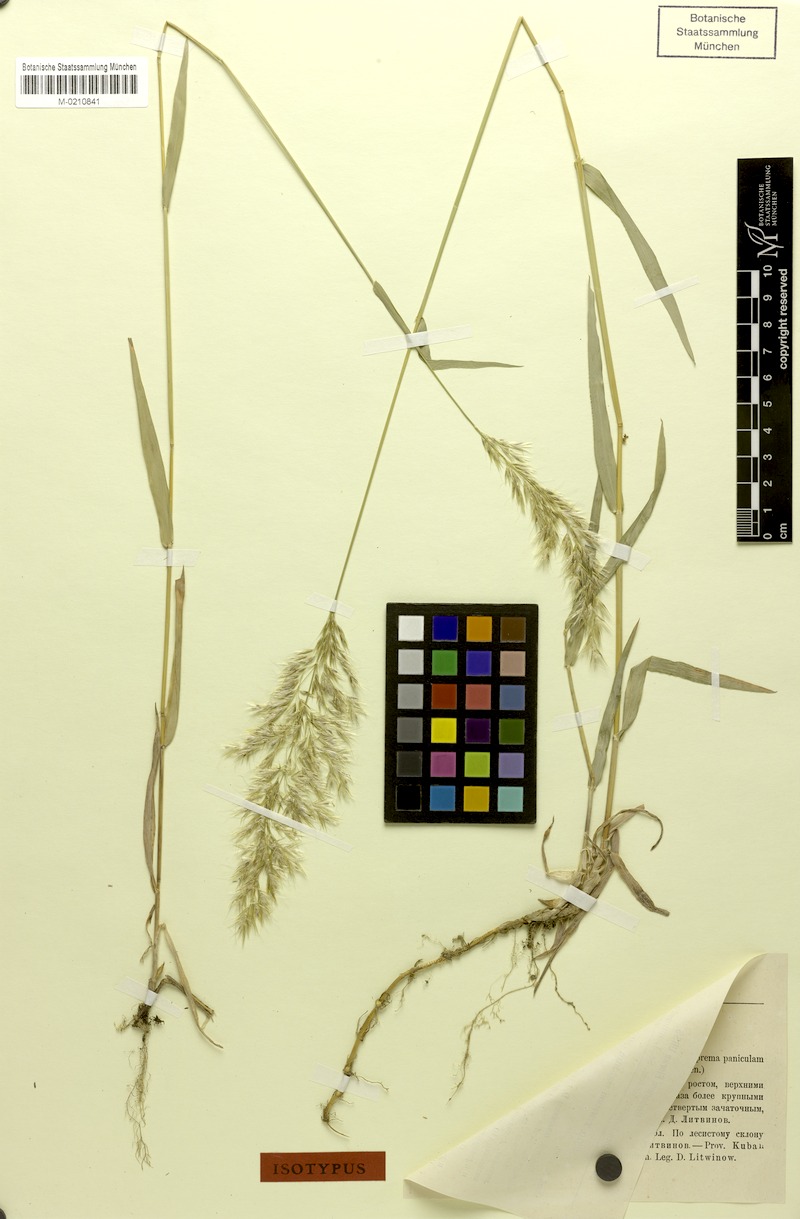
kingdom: Plantae
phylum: Tracheophyta
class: Liliopsida
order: Poales
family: Poaceae
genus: Trisetum
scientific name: Trisetum rigidum
